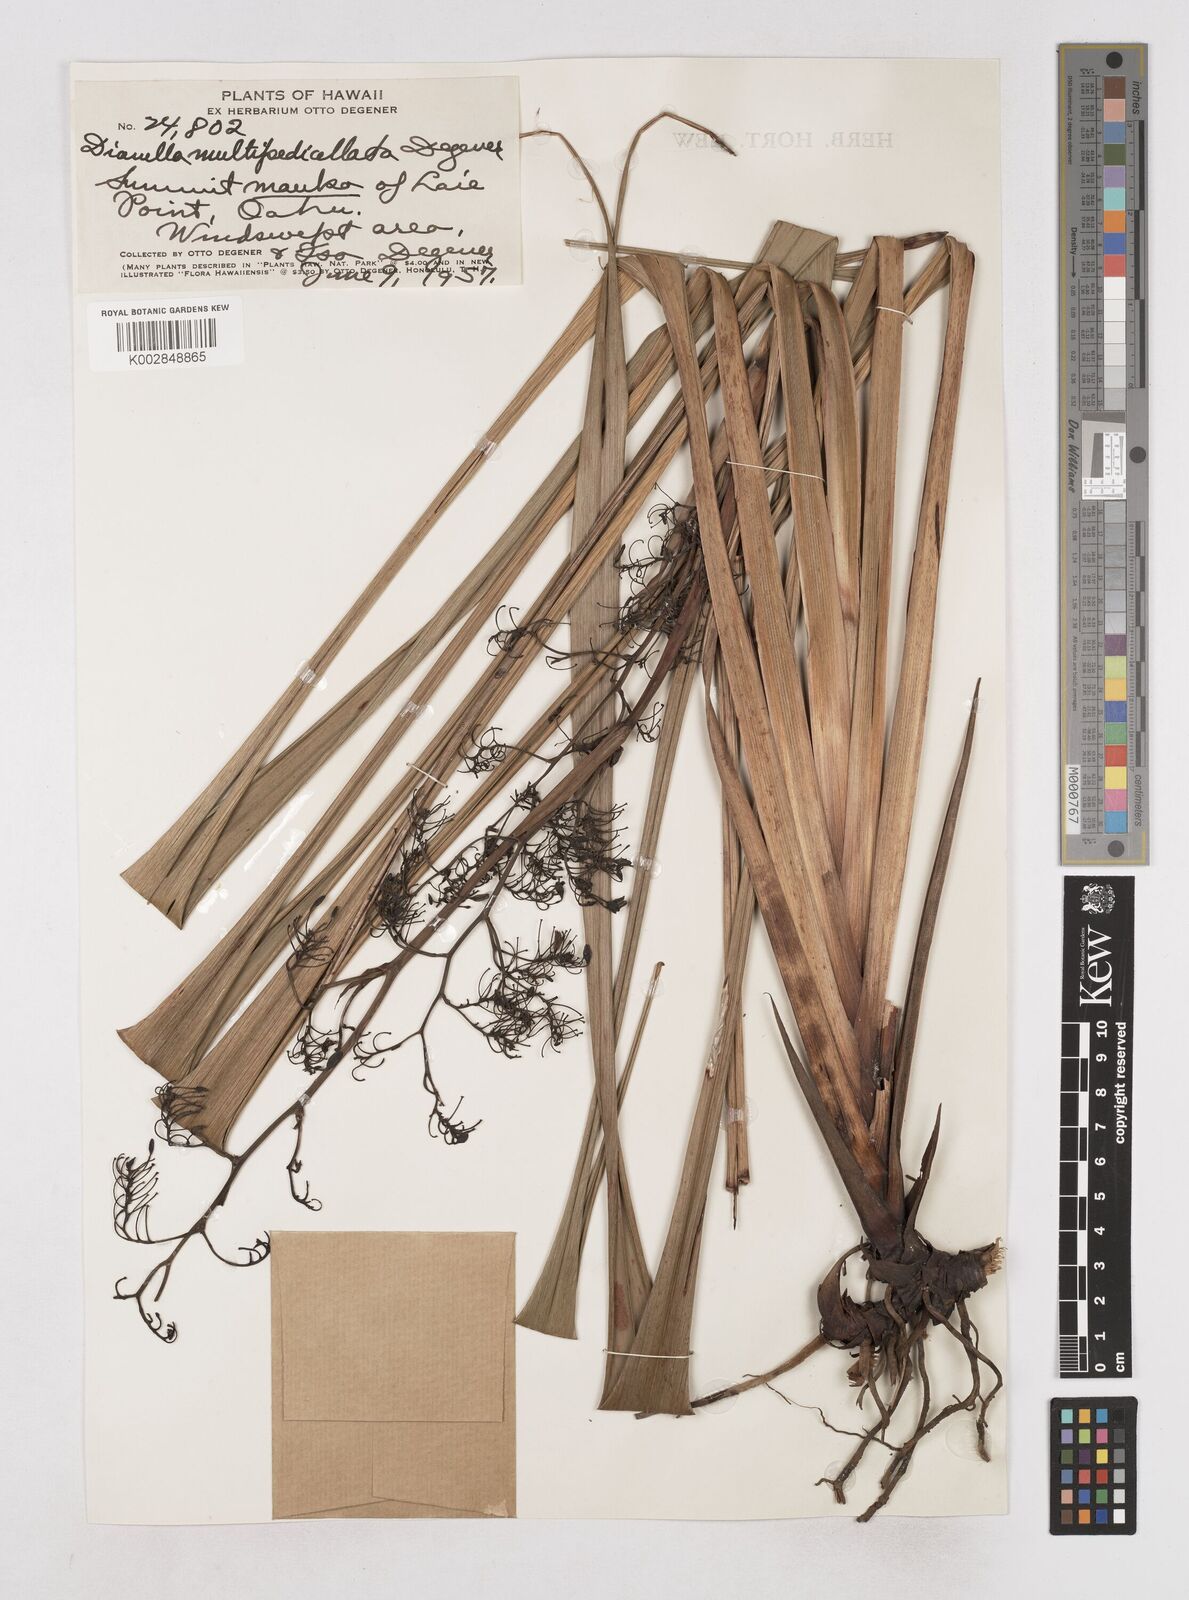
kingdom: Plantae
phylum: Tracheophyta
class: Liliopsida
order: Asparagales
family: Asphodelaceae
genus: Dianella
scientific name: Dianella sandwicensis
